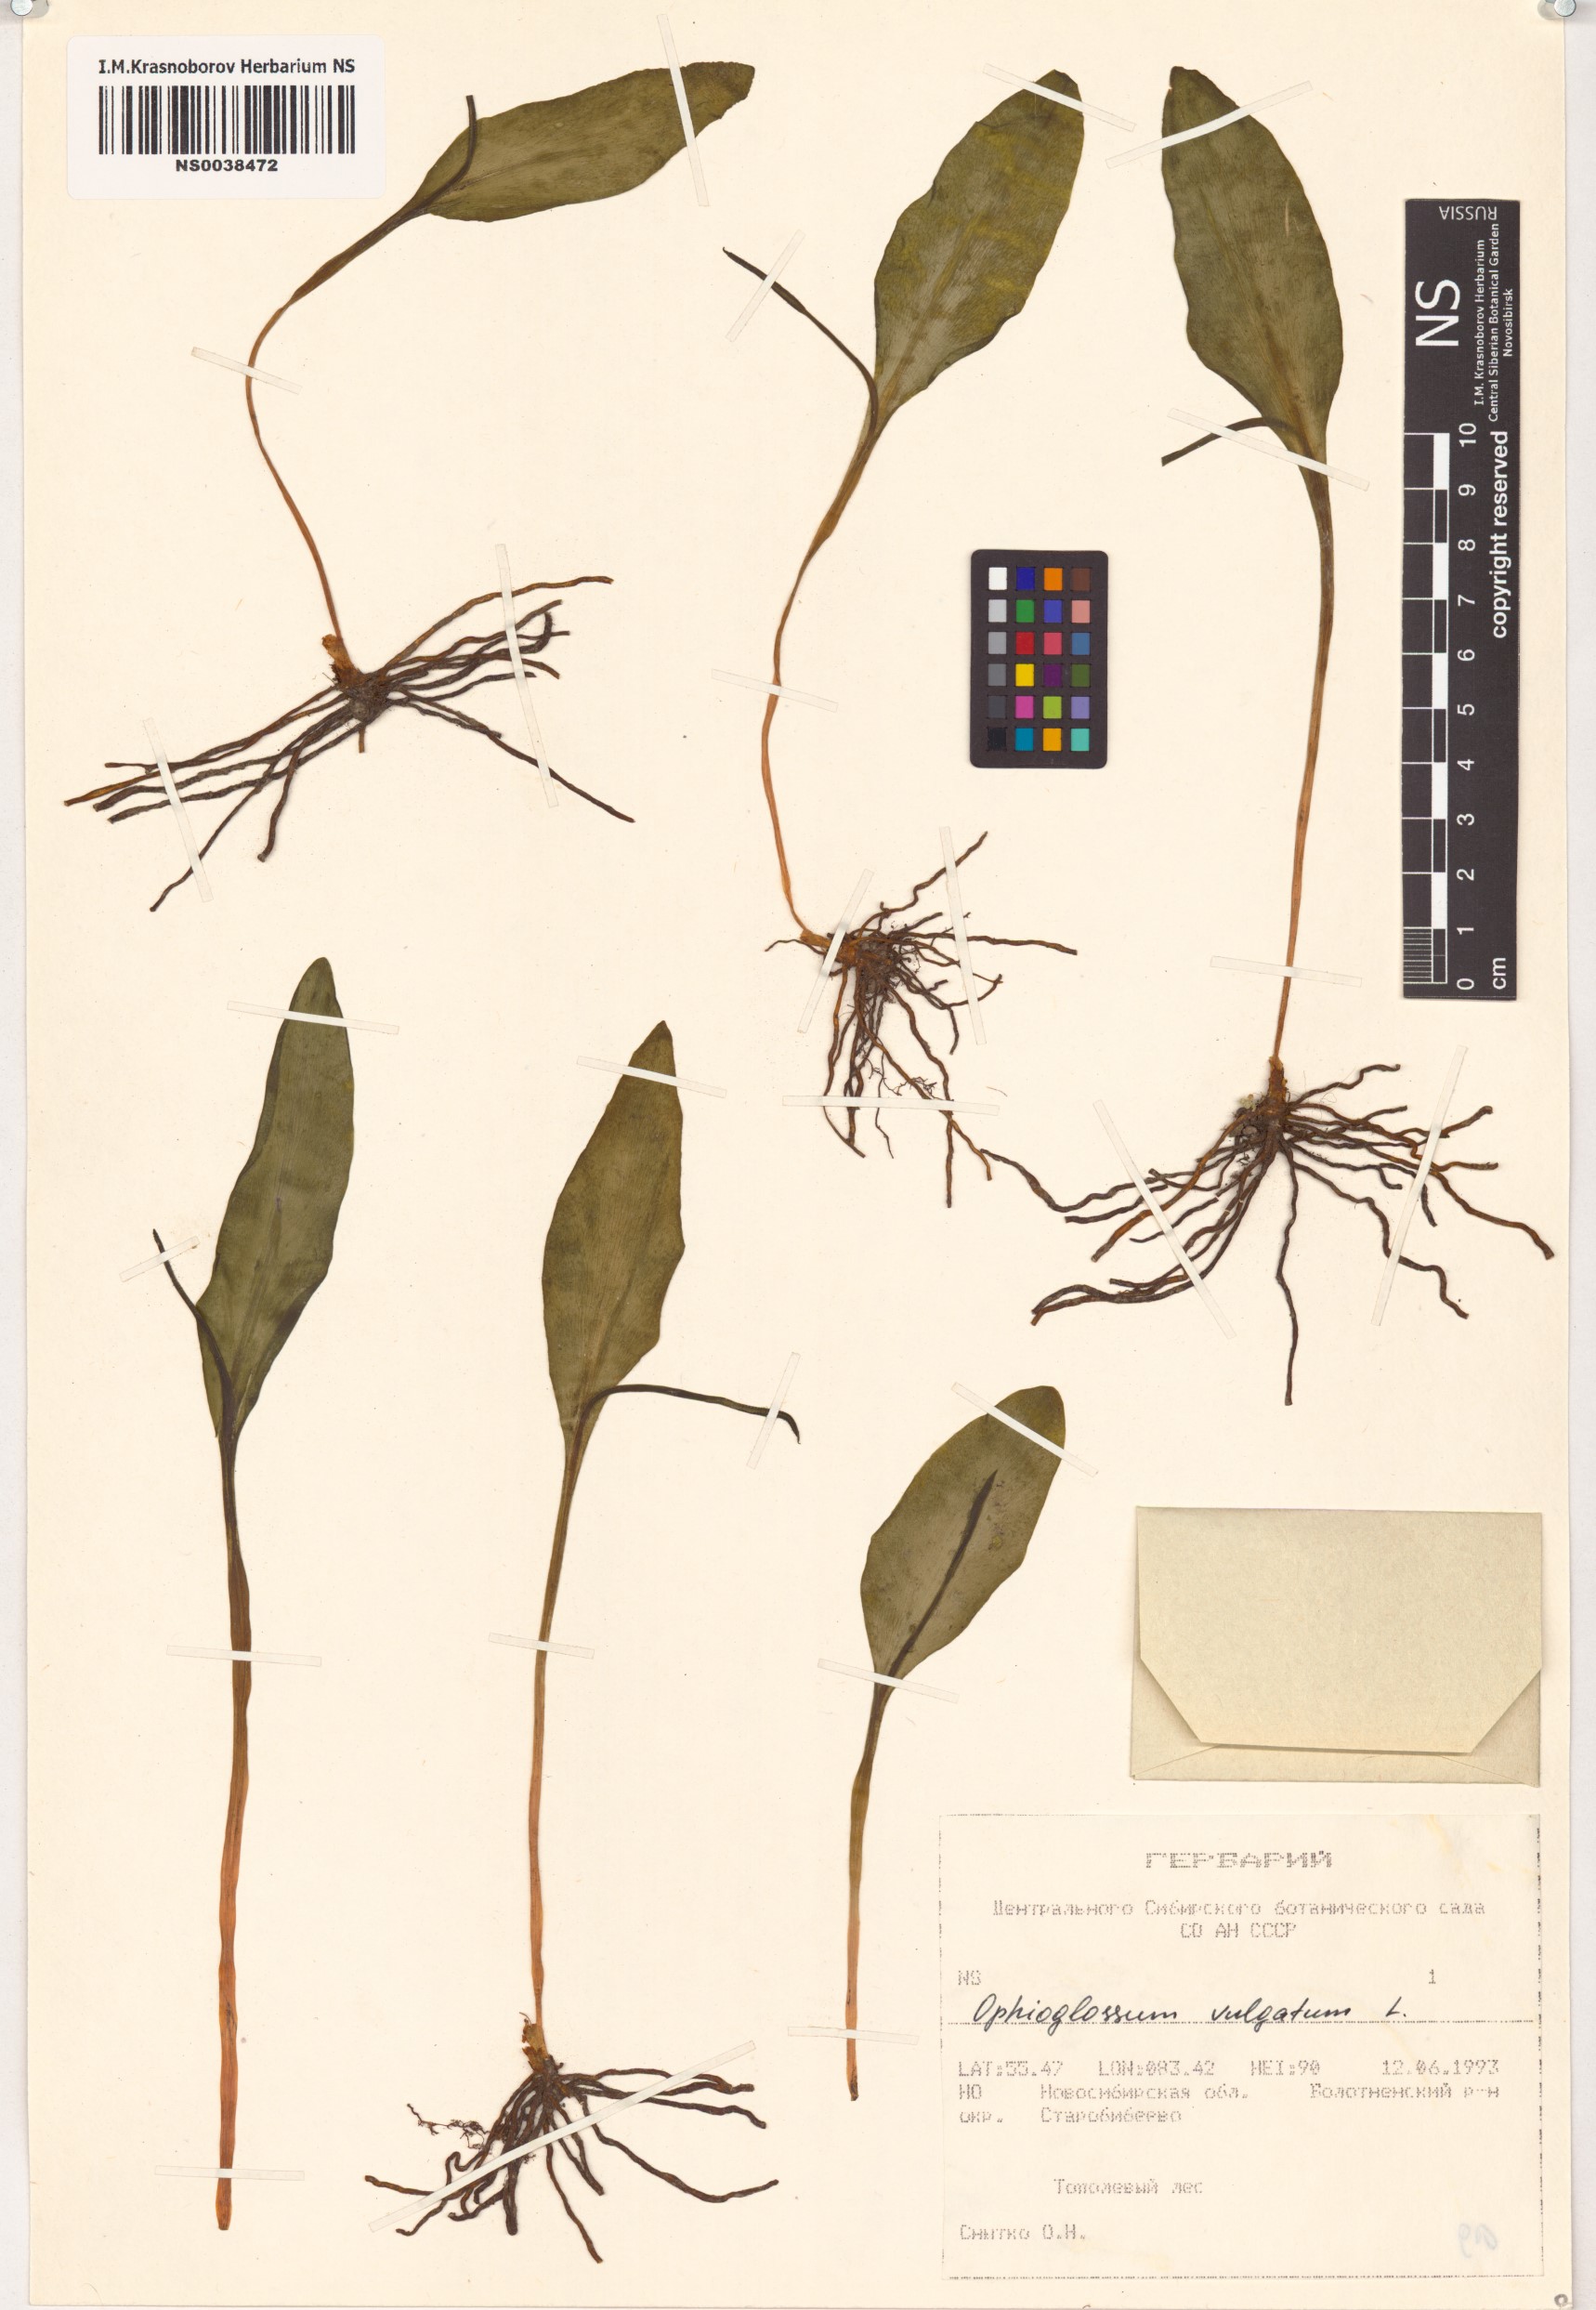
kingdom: Plantae
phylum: Tracheophyta
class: Polypodiopsida
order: Ophioglossales
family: Ophioglossaceae
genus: Ophioglossum
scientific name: Ophioglossum vulgatum
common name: Adder's-tongue
